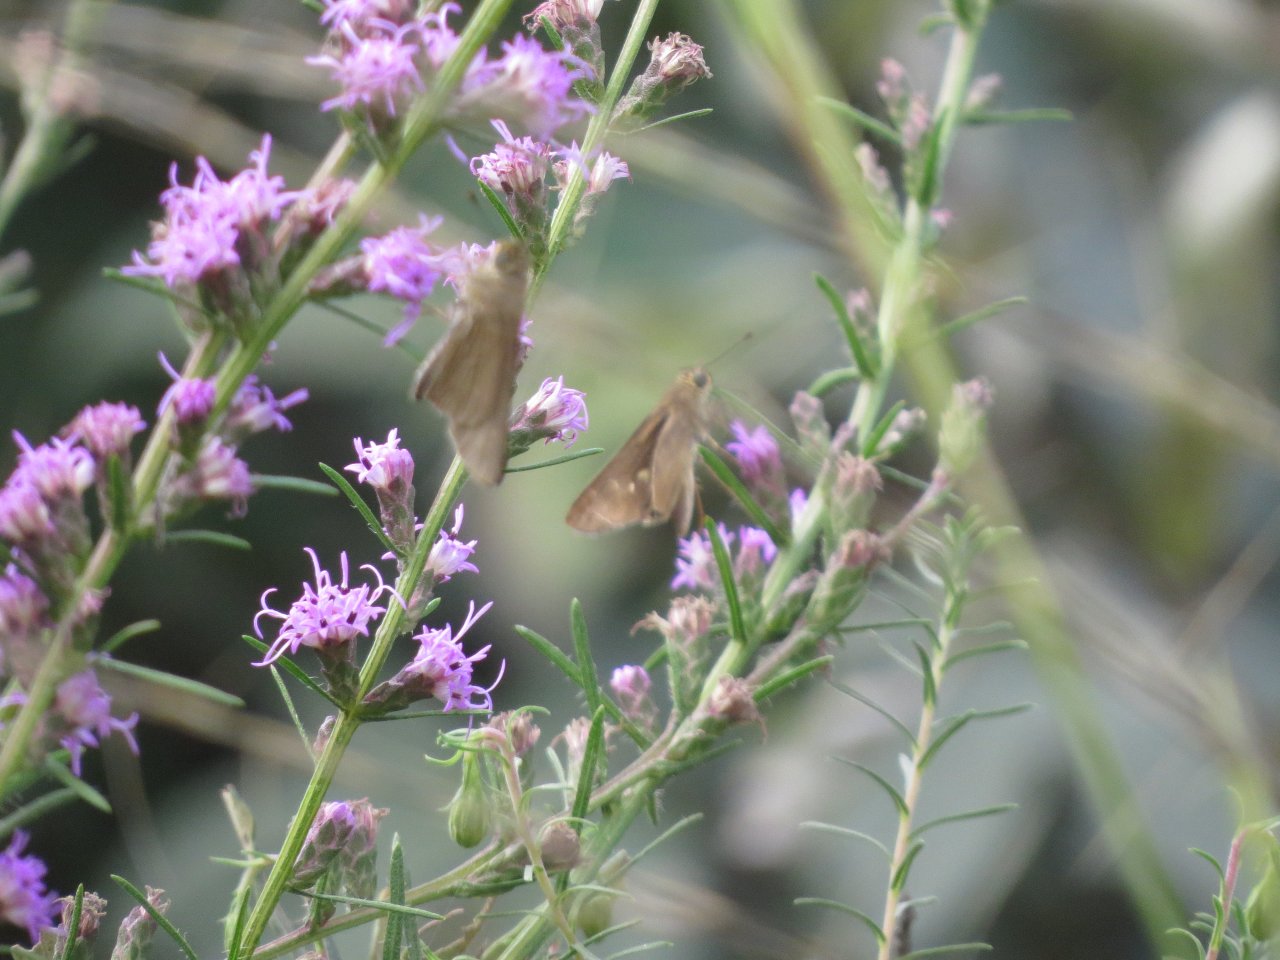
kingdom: Animalia
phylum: Arthropoda
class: Insecta
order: Lepidoptera
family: Hesperiidae
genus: Panoquina
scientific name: Panoquina ocola
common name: Ocola Skipper
